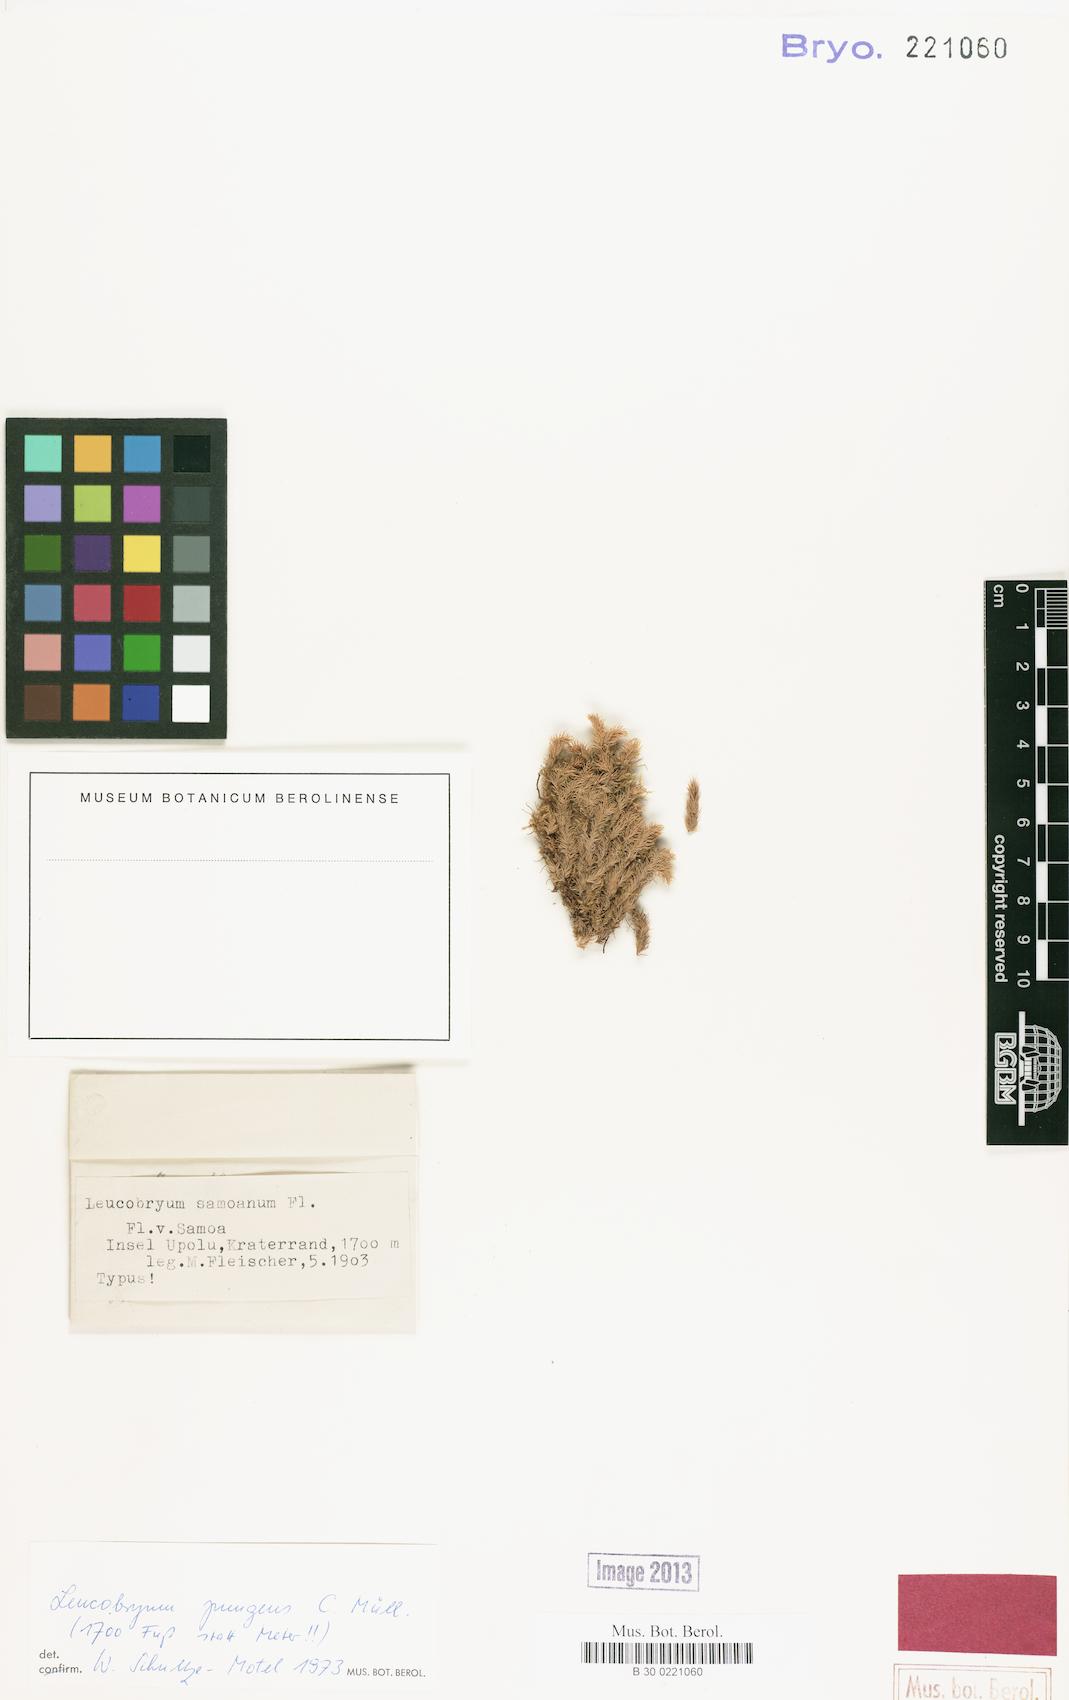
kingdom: Plantae
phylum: Bryophyta
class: Bryopsida
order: Dicranales
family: Leucobryaceae
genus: Leucobryum
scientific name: Leucobryum pungens
